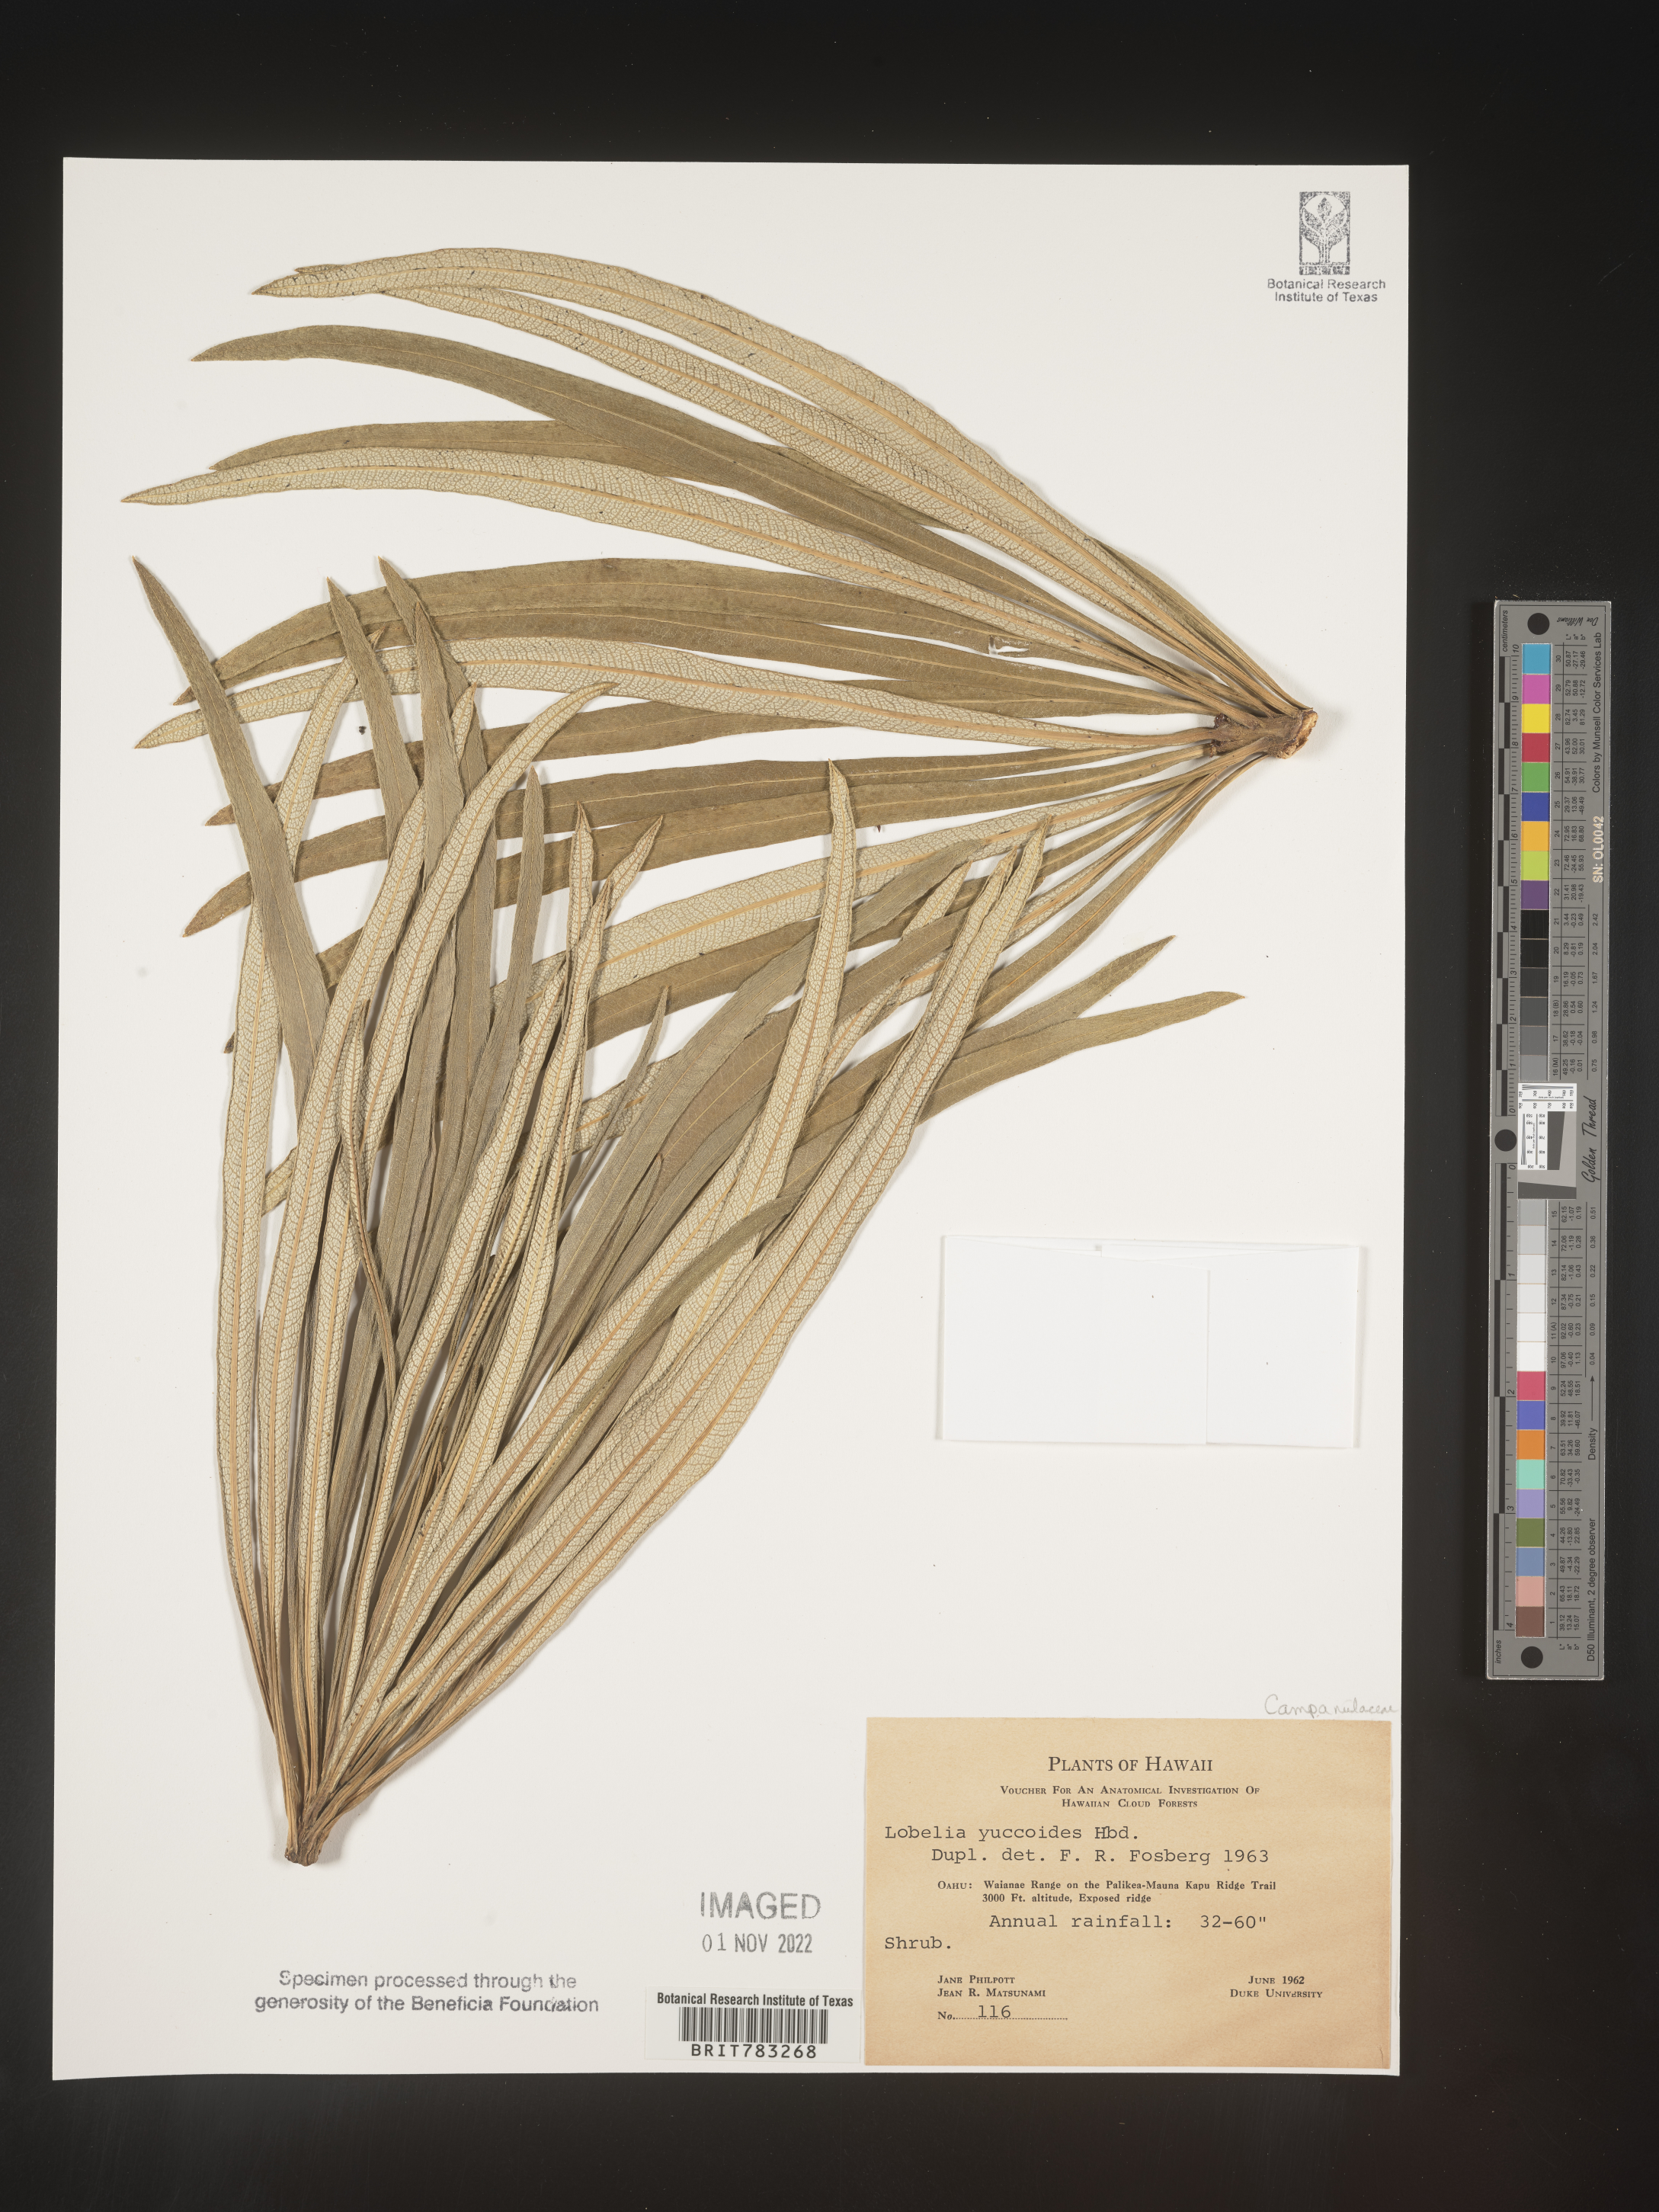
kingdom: Plantae
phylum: Tracheophyta
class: Magnoliopsida
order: Asterales
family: Campanulaceae
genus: Lobelia
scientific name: Lobelia
